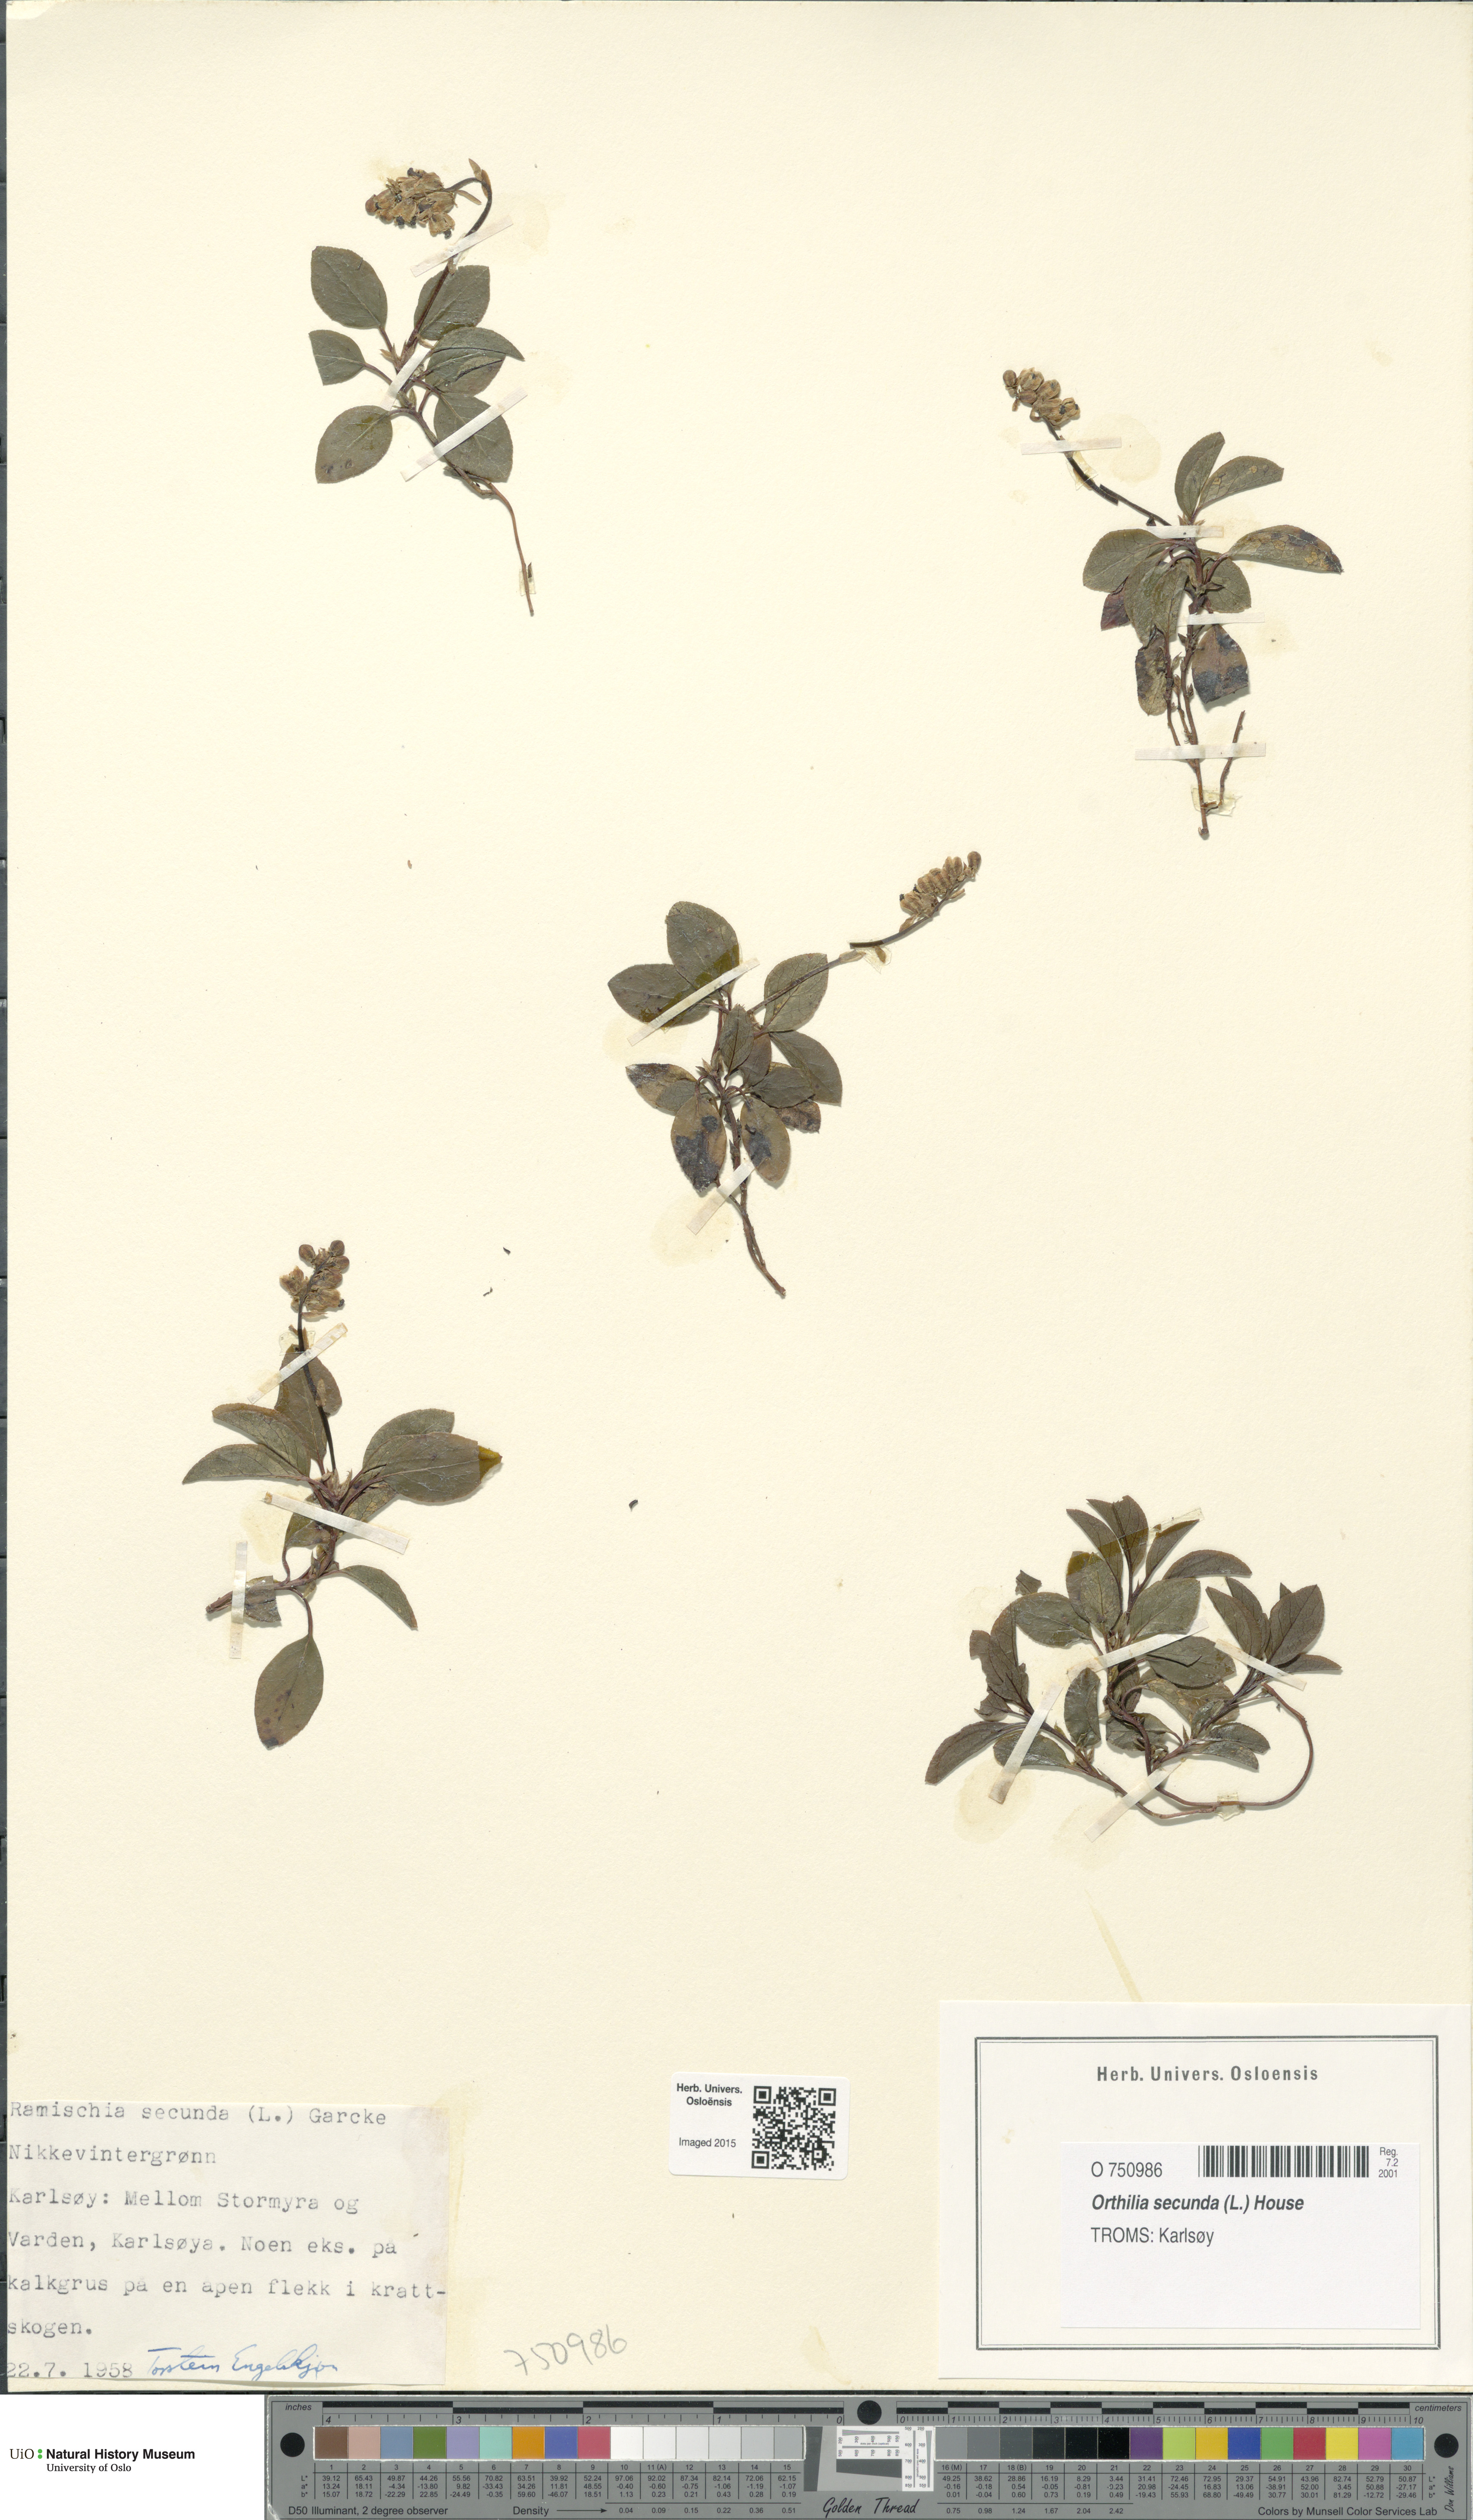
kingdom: Plantae
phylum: Tracheophyta
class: Magnoliopsida
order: Ericales
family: Ericaceae
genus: Orthilia
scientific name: Orthilia secunda
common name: One-sided orthilia
